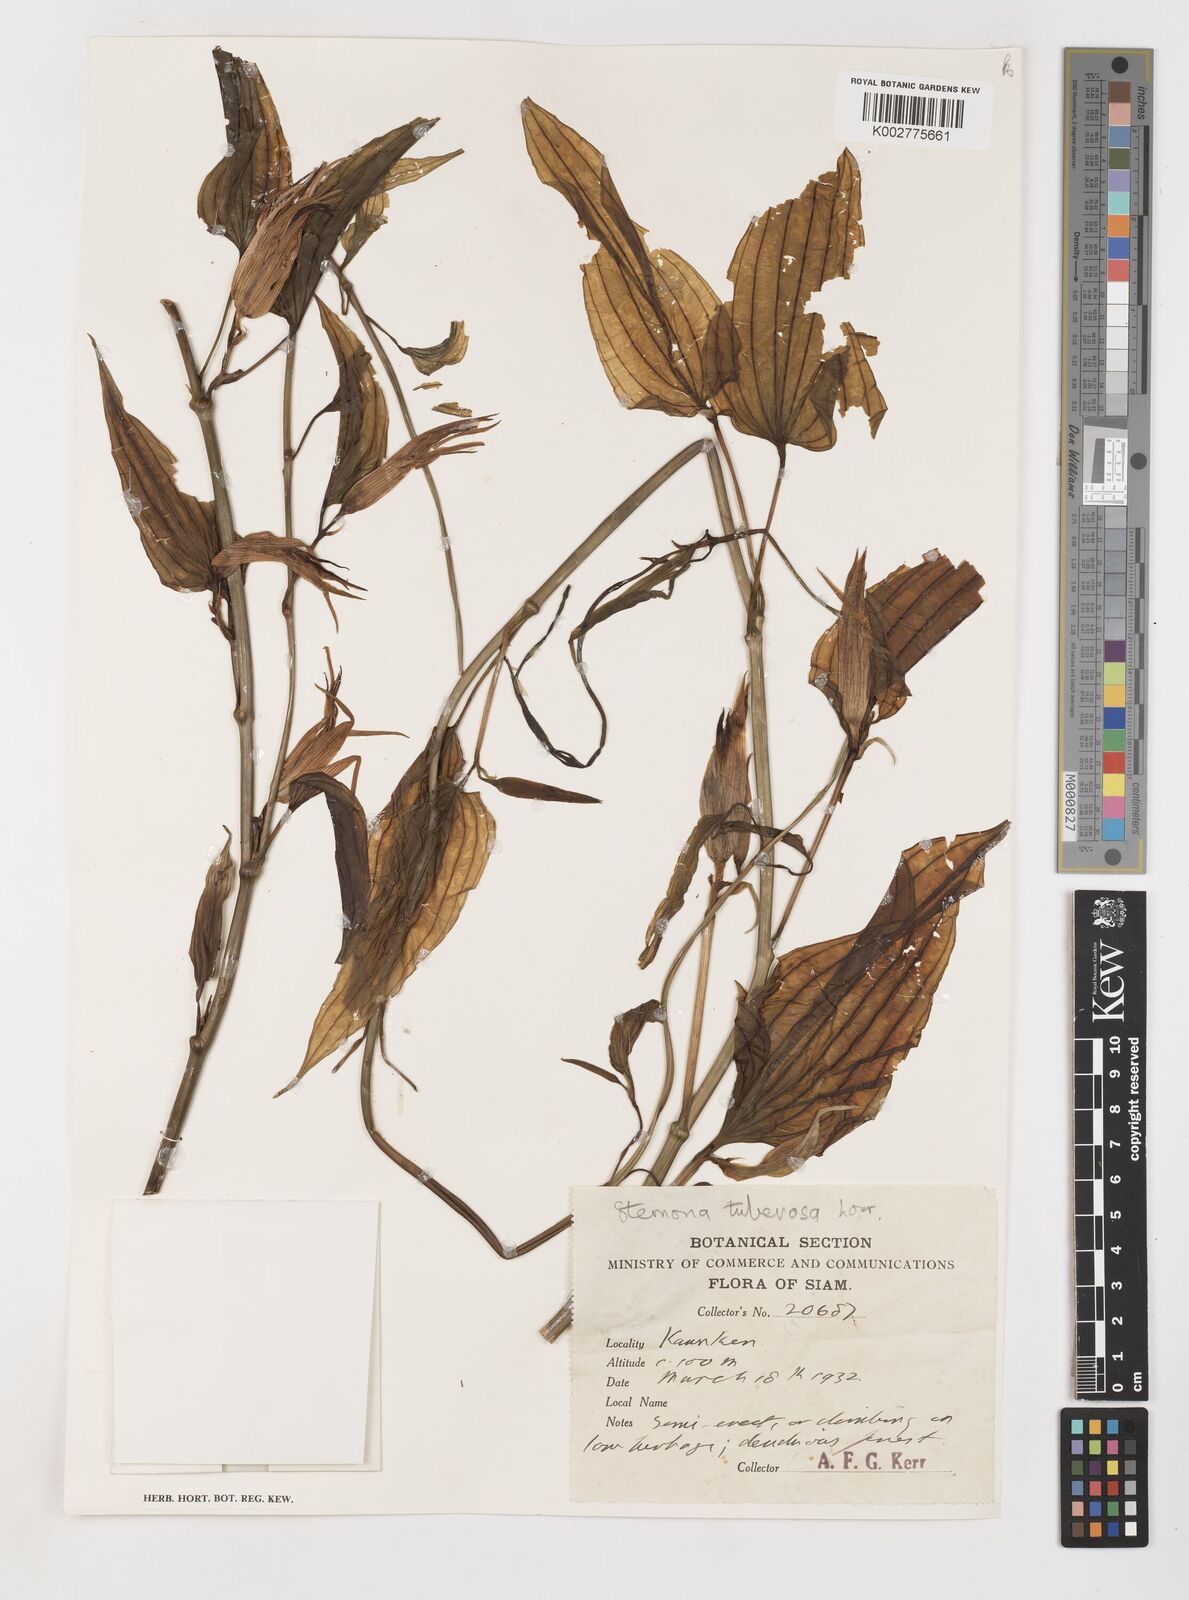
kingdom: Plantae
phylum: Tracheophyta
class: Liliopsida
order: Pandanales
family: Stemonaceae
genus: Stemona
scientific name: Stemona tuberosa
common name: Stemona
